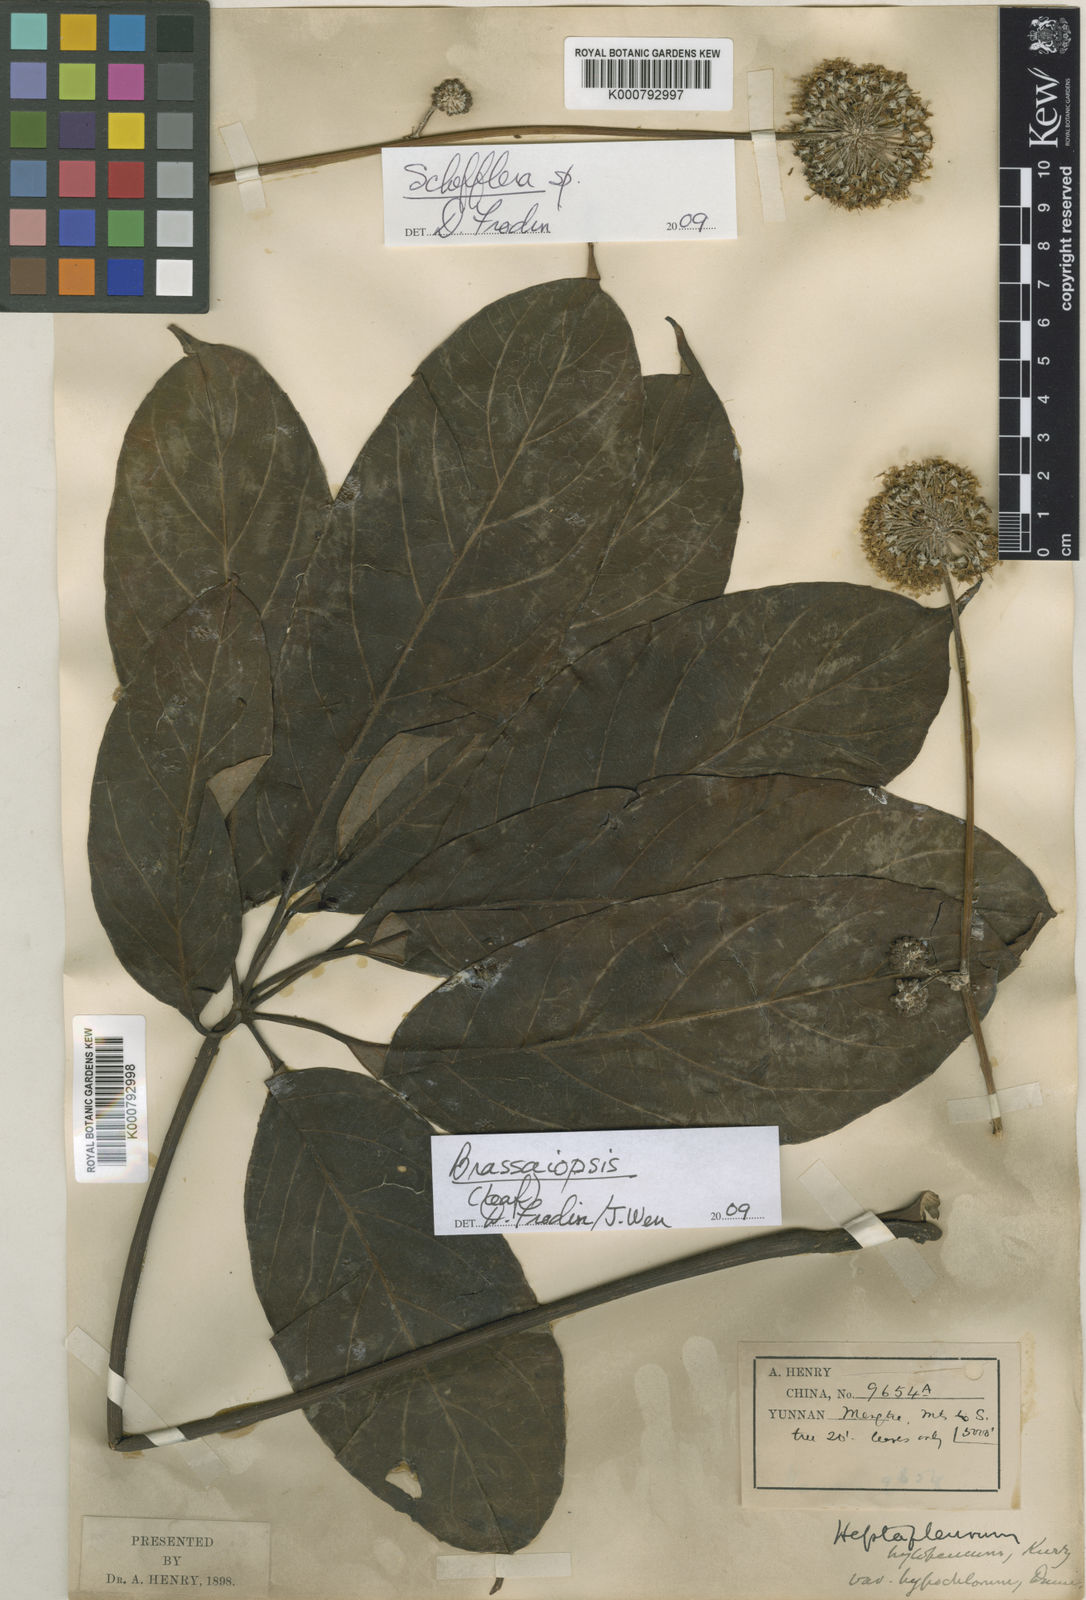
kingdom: Plantae
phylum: Tracheophyta
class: Magnoliopsida
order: Apiales
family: Araliaceae
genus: Heptapleurum
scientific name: Heptapleurum hypoleucoides
